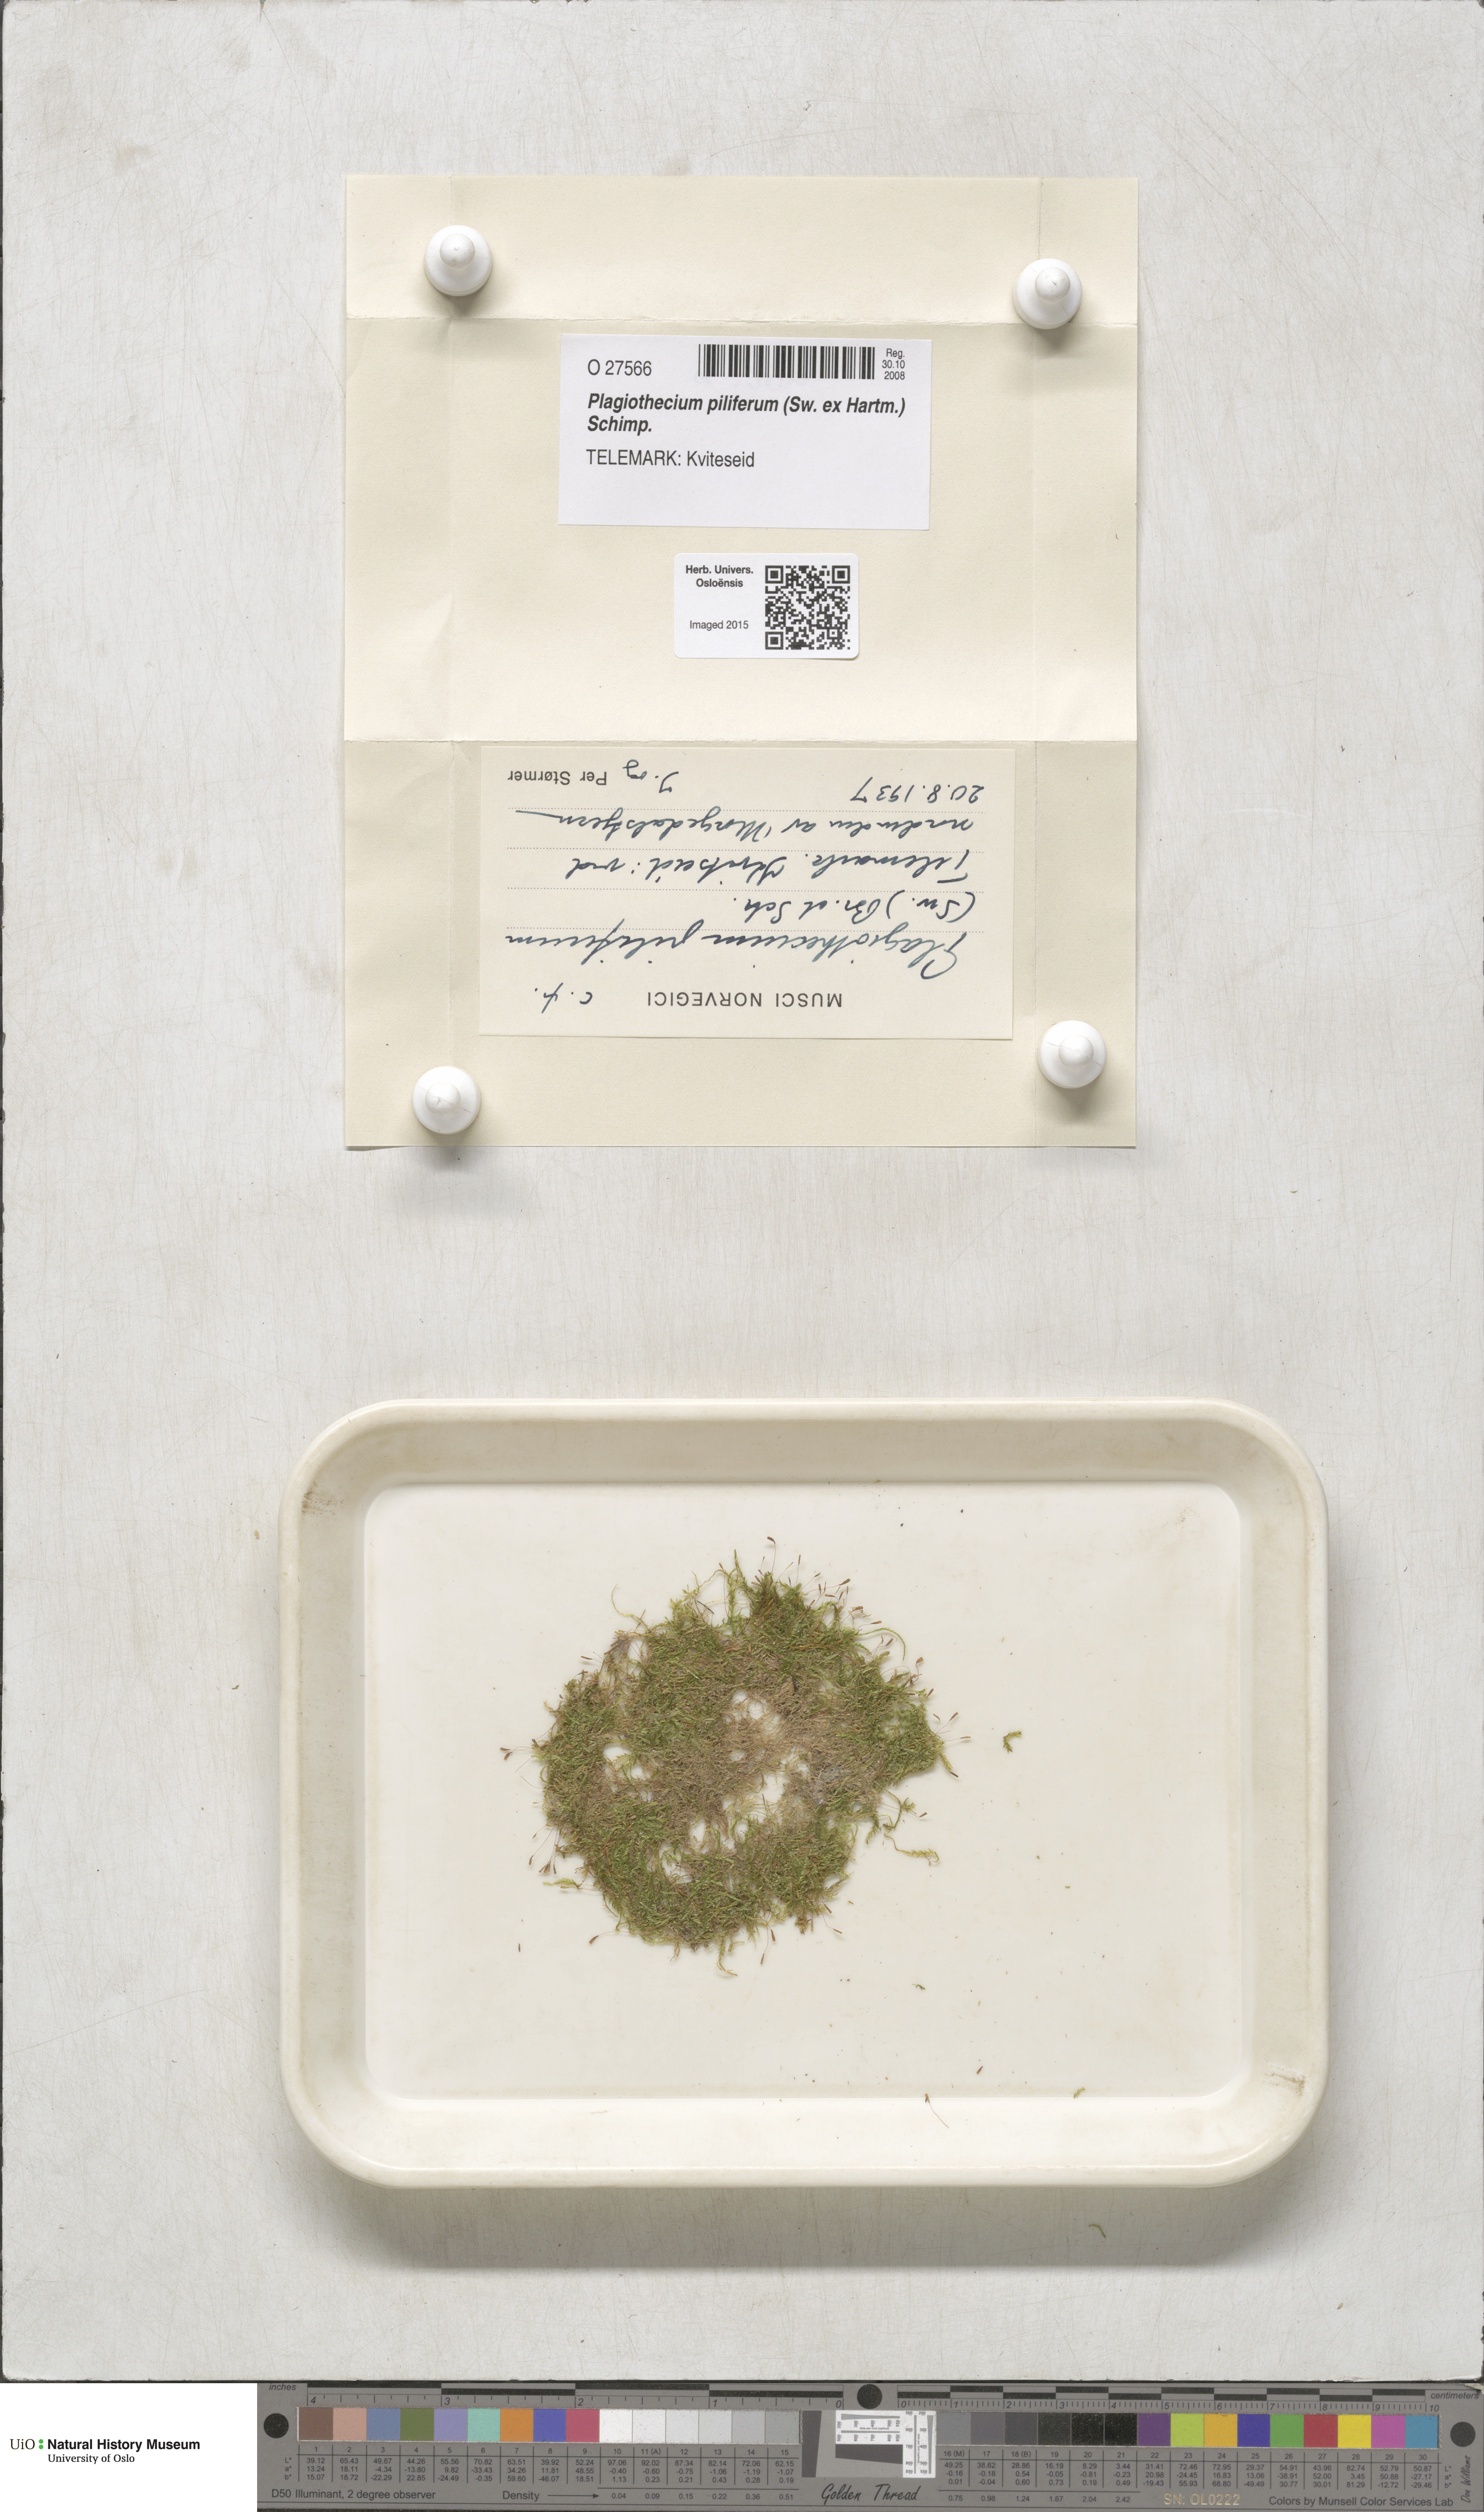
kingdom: Plantae
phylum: Bryophyta
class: Bryopsida
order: Hypnales
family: Plagiotheciaceae
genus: Rectithecium
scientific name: Rectithecium piliferum
